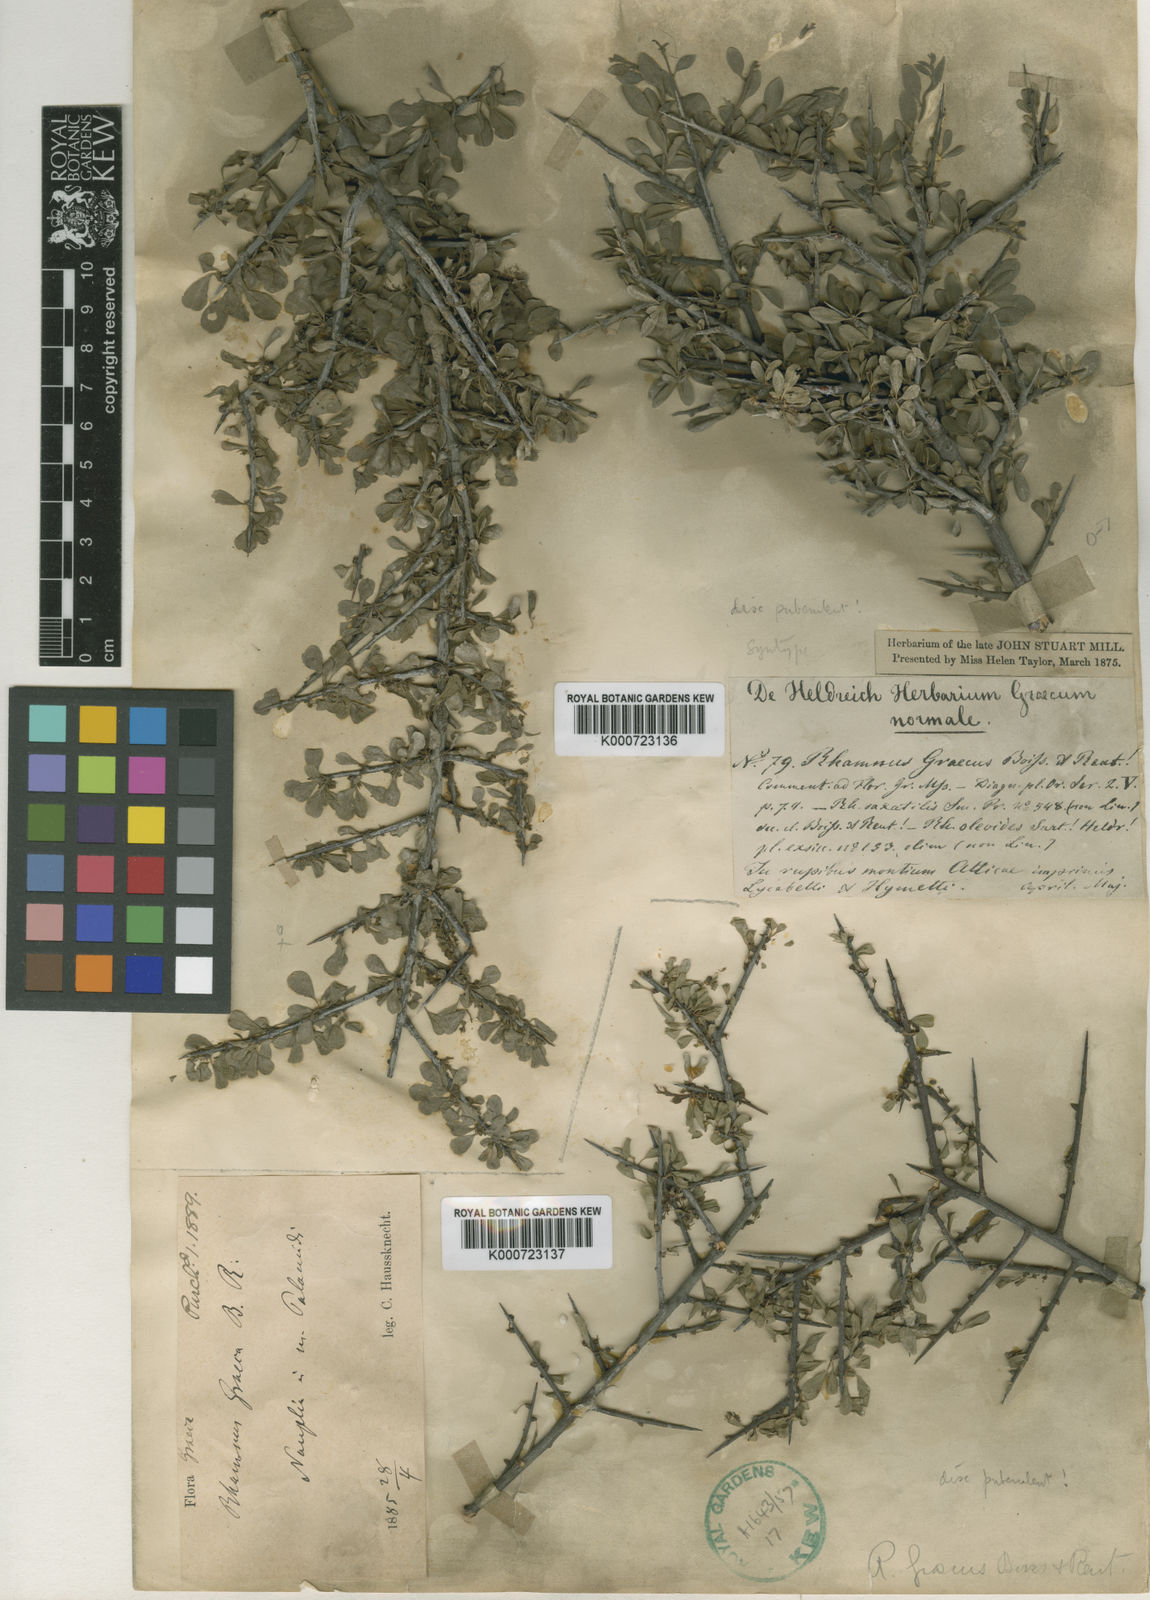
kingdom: Plantae
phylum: Tracheophyta
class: Magnoliopsida
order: Rosales
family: Rhamnaceae
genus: Rhamnus
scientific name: Rhamnus oleoides
